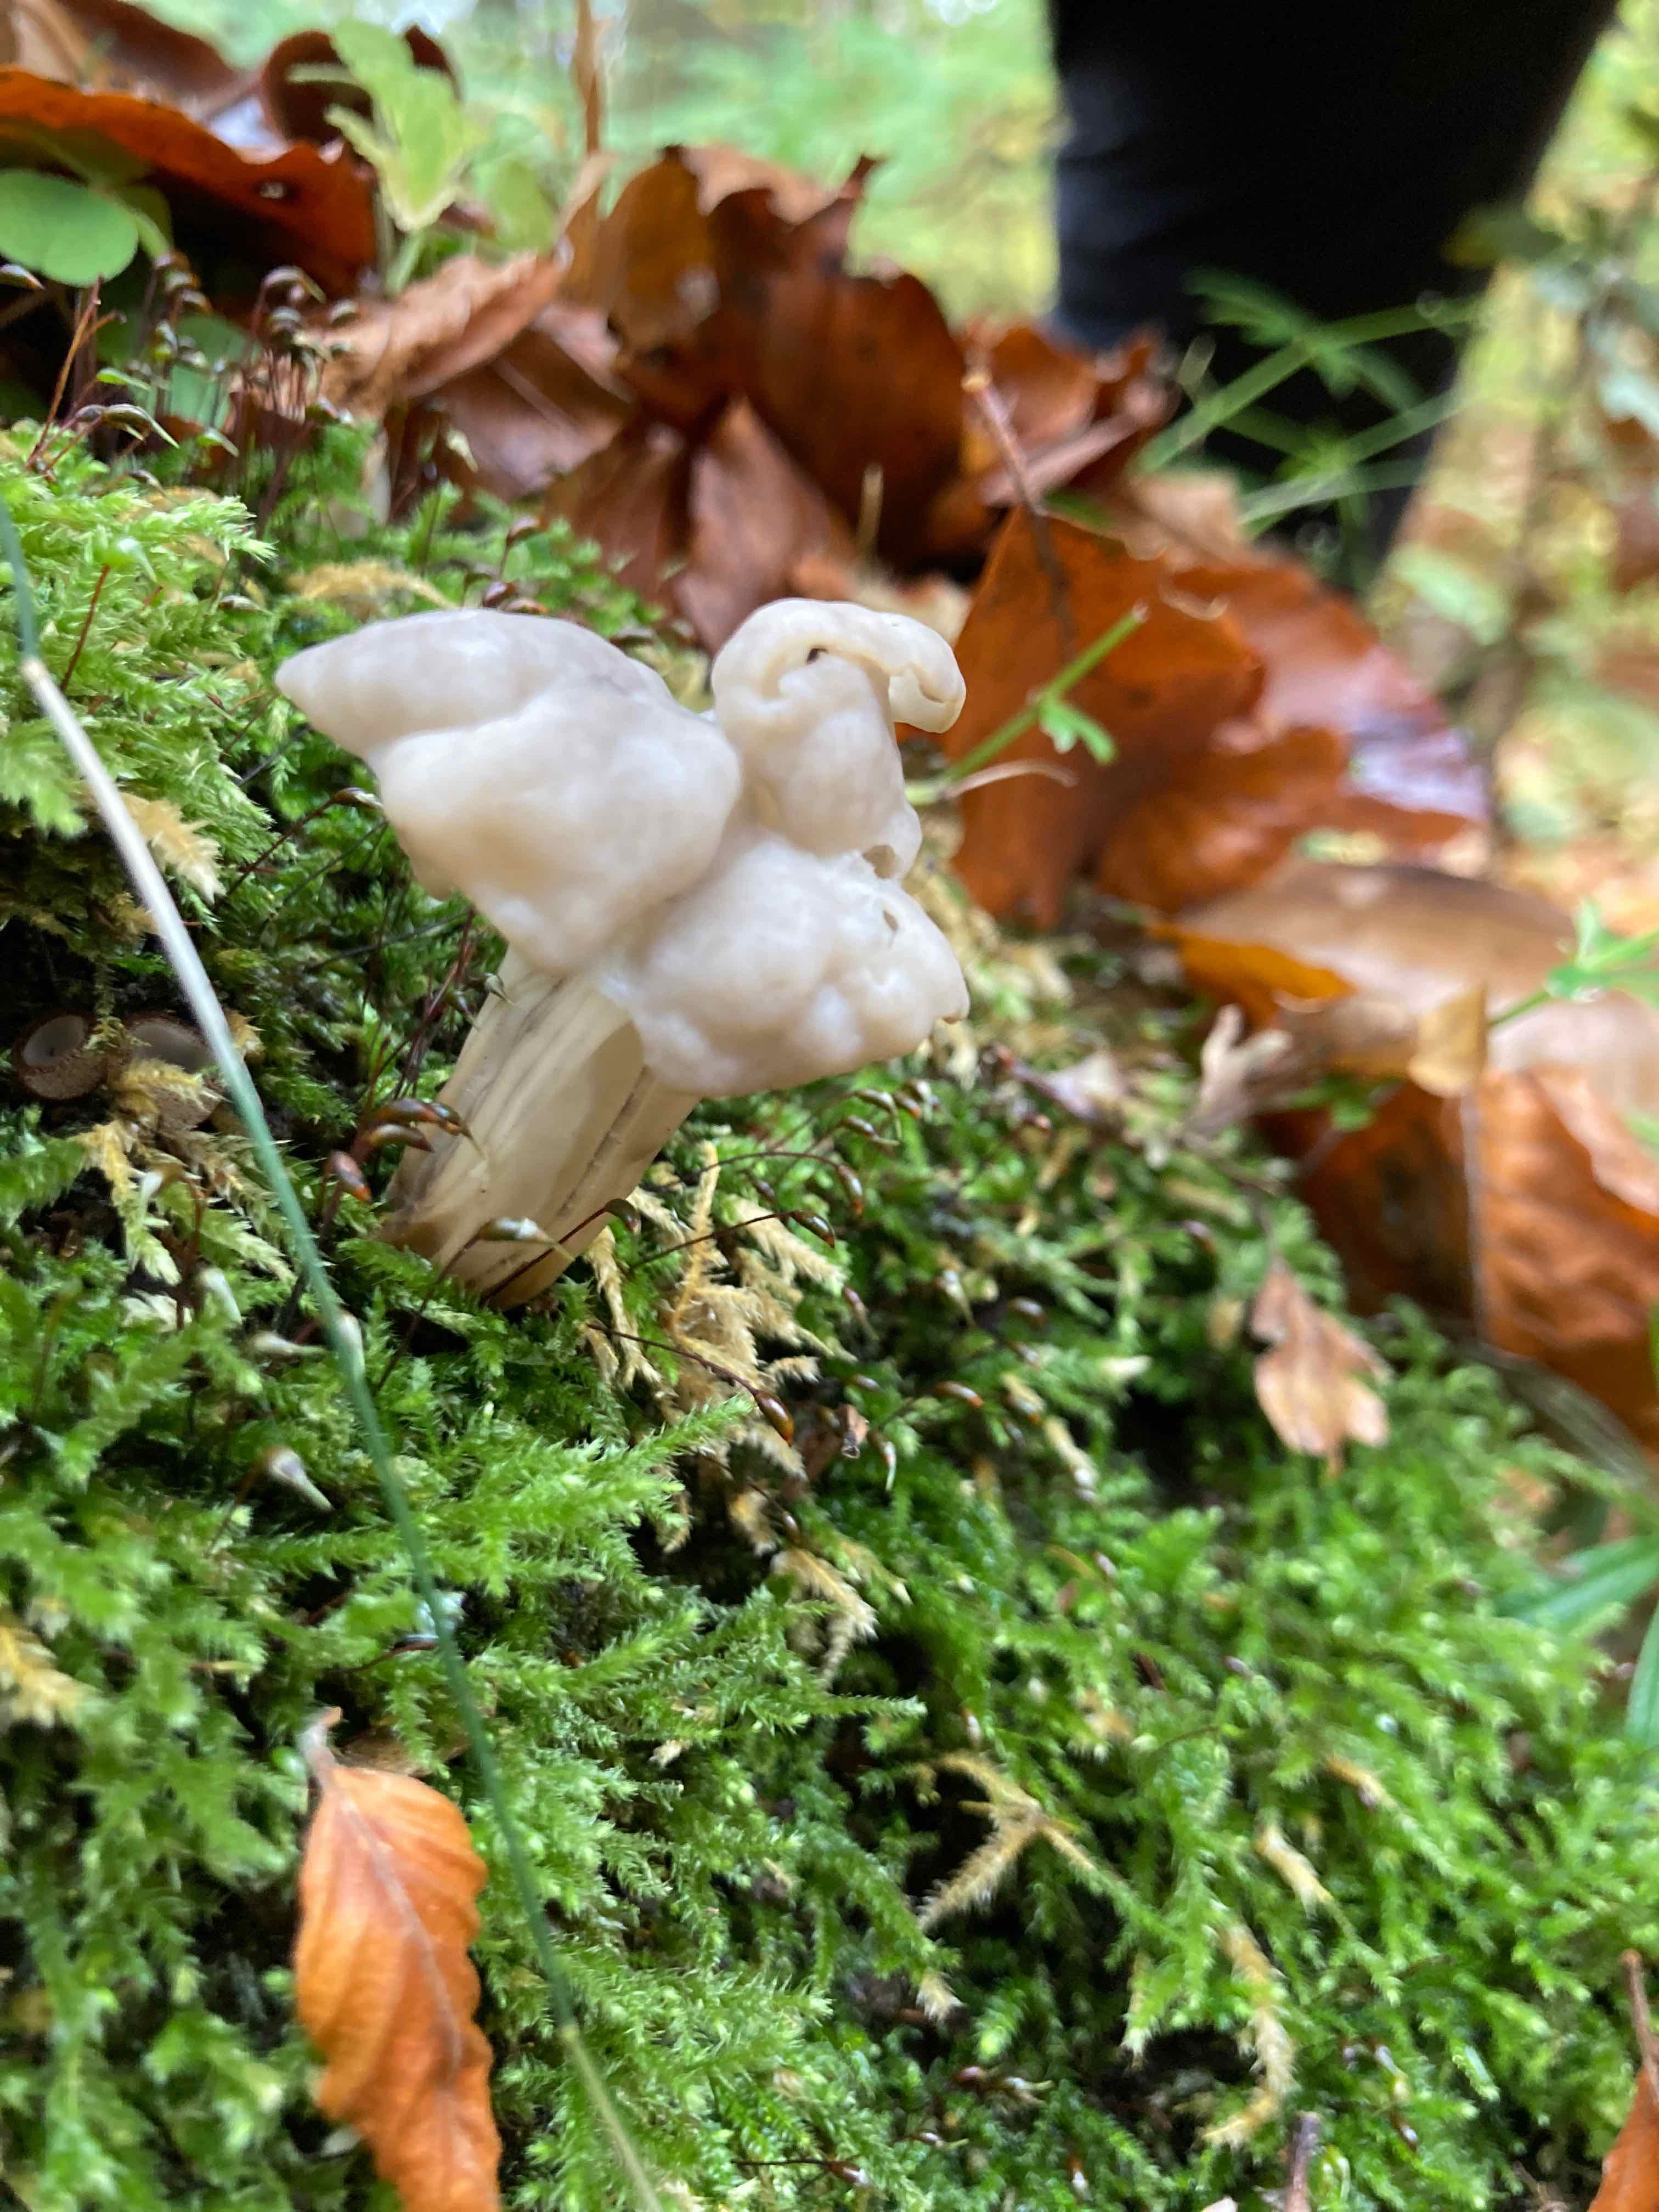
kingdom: Fungi
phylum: Ascomycota
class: Pezizomycetes
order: Pezizales
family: Helvellaceae
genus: Helvella
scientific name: Helvella crispa
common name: kruset foldhat
